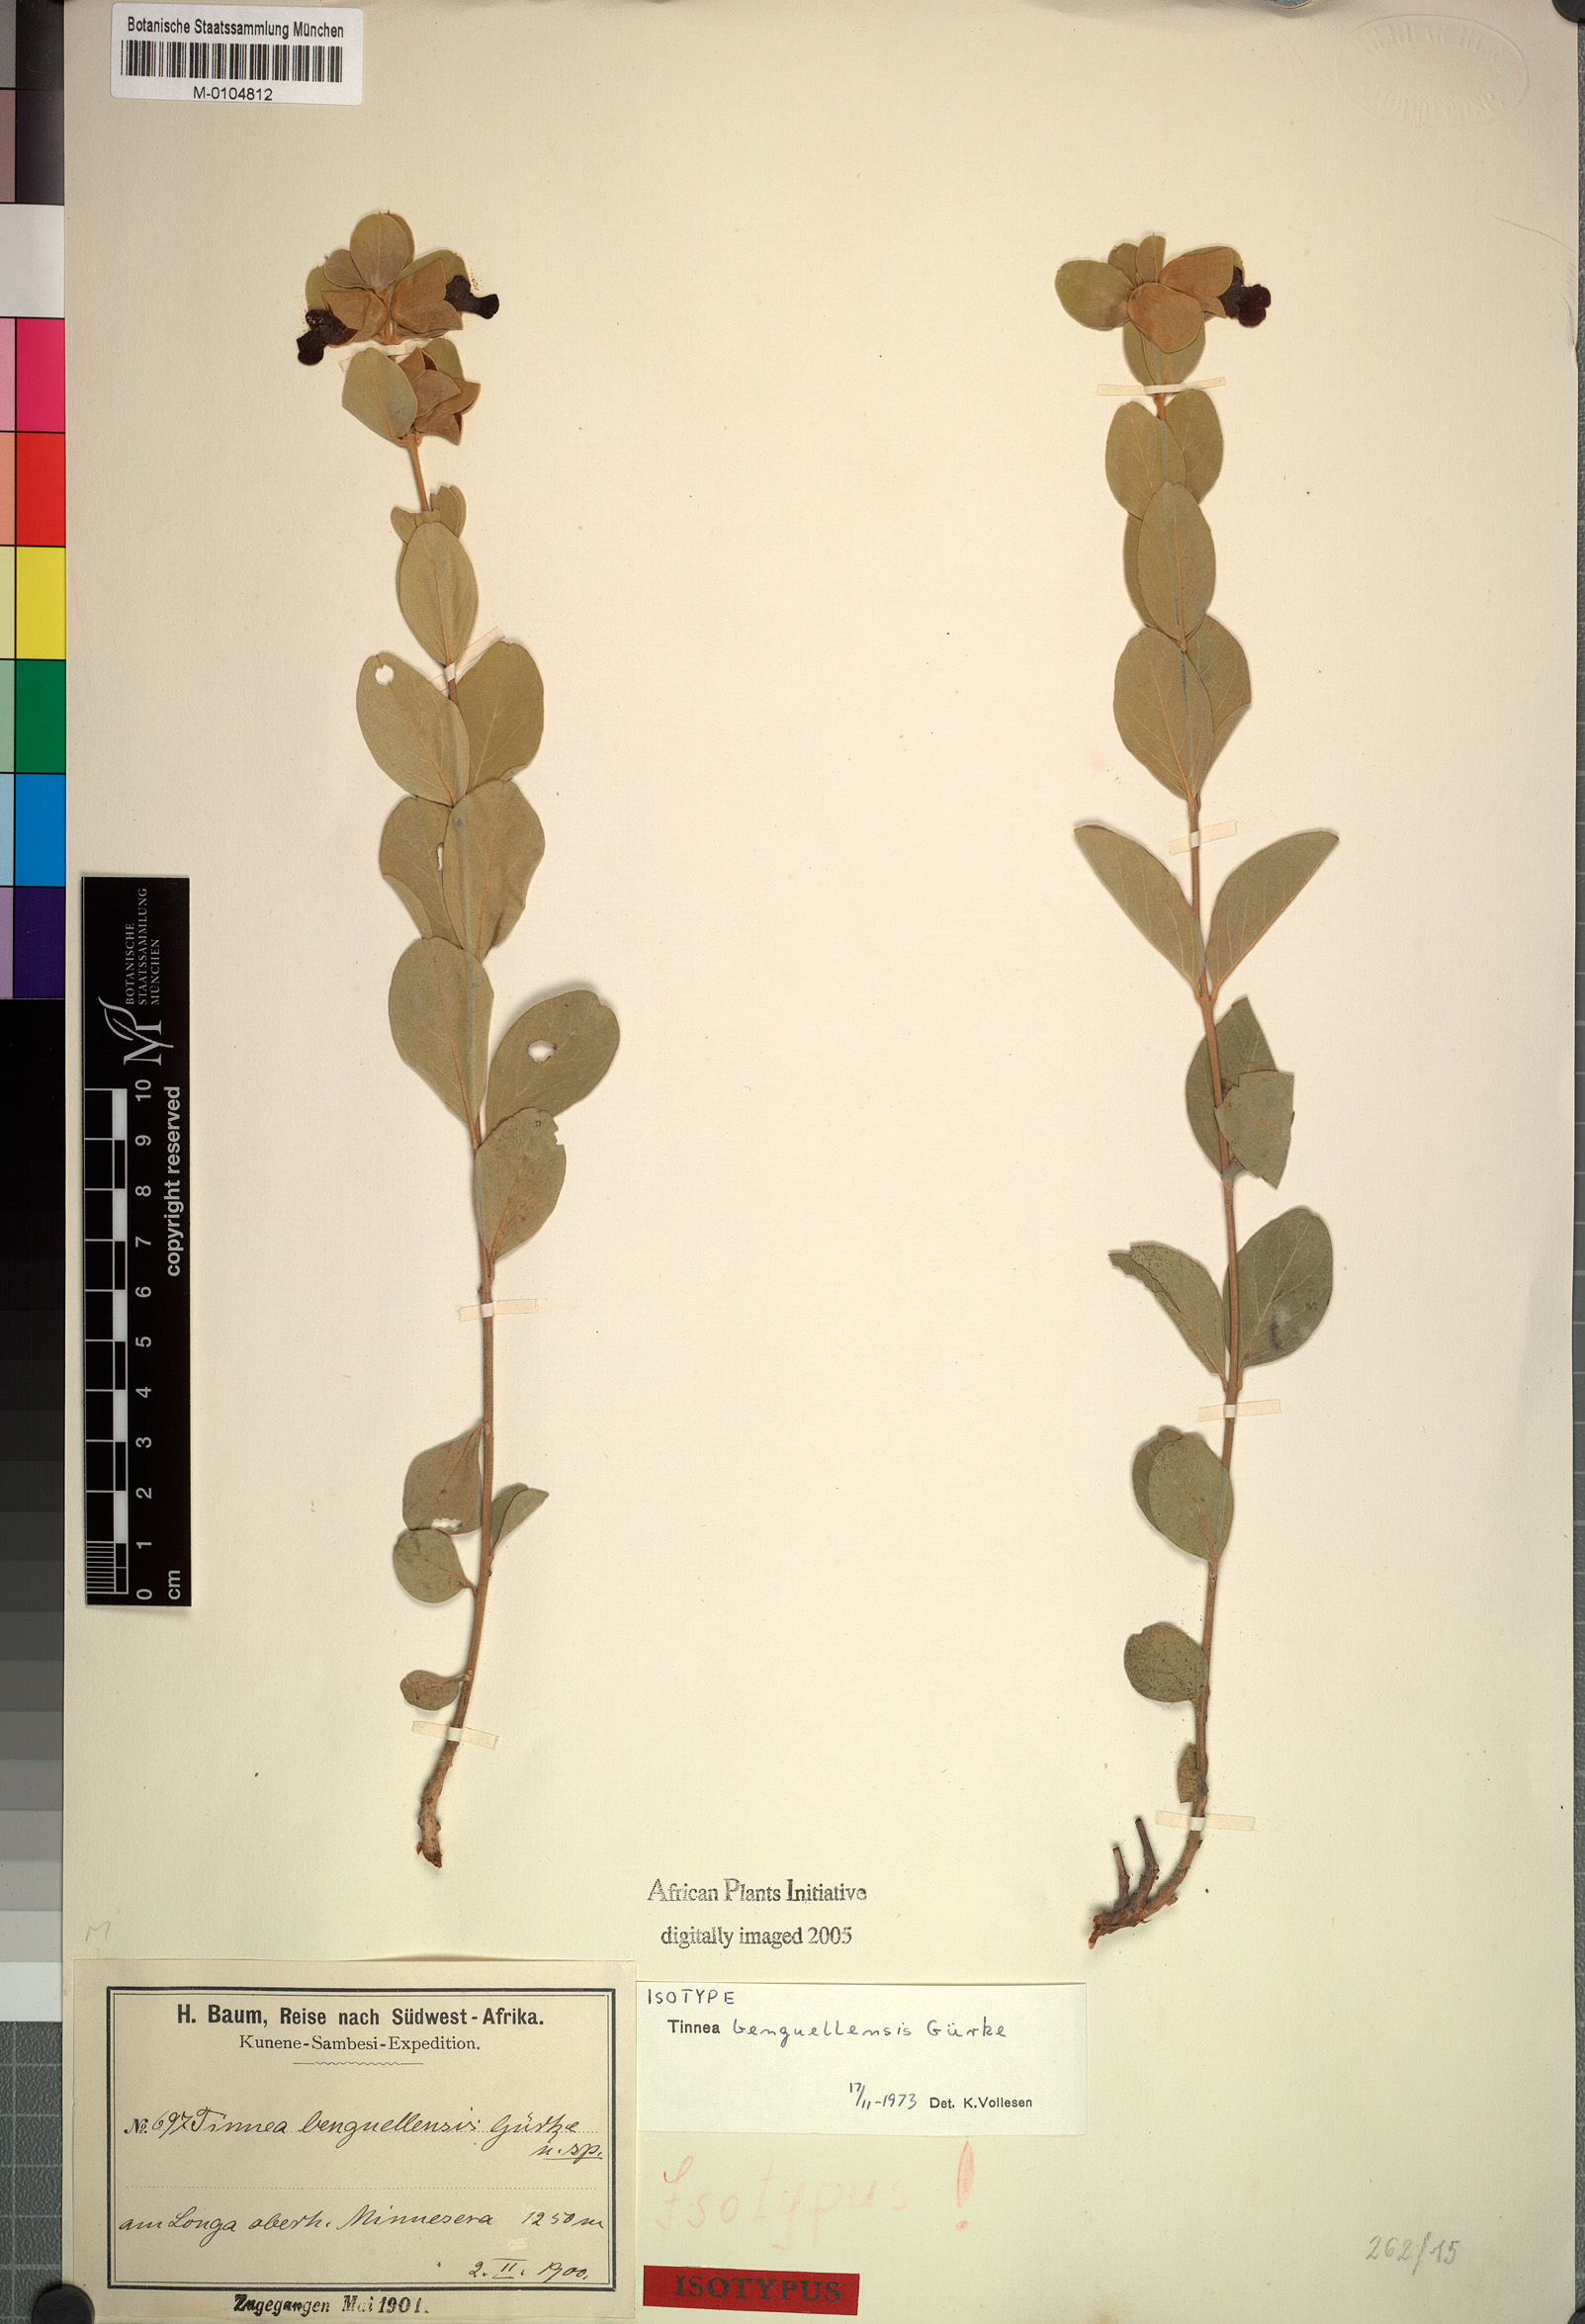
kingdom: Plantae
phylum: Tracheophyta
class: Magnoliopsida
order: Lamiales
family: Lamiaceae
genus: Tinnea
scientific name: Tinnea benguellensis
